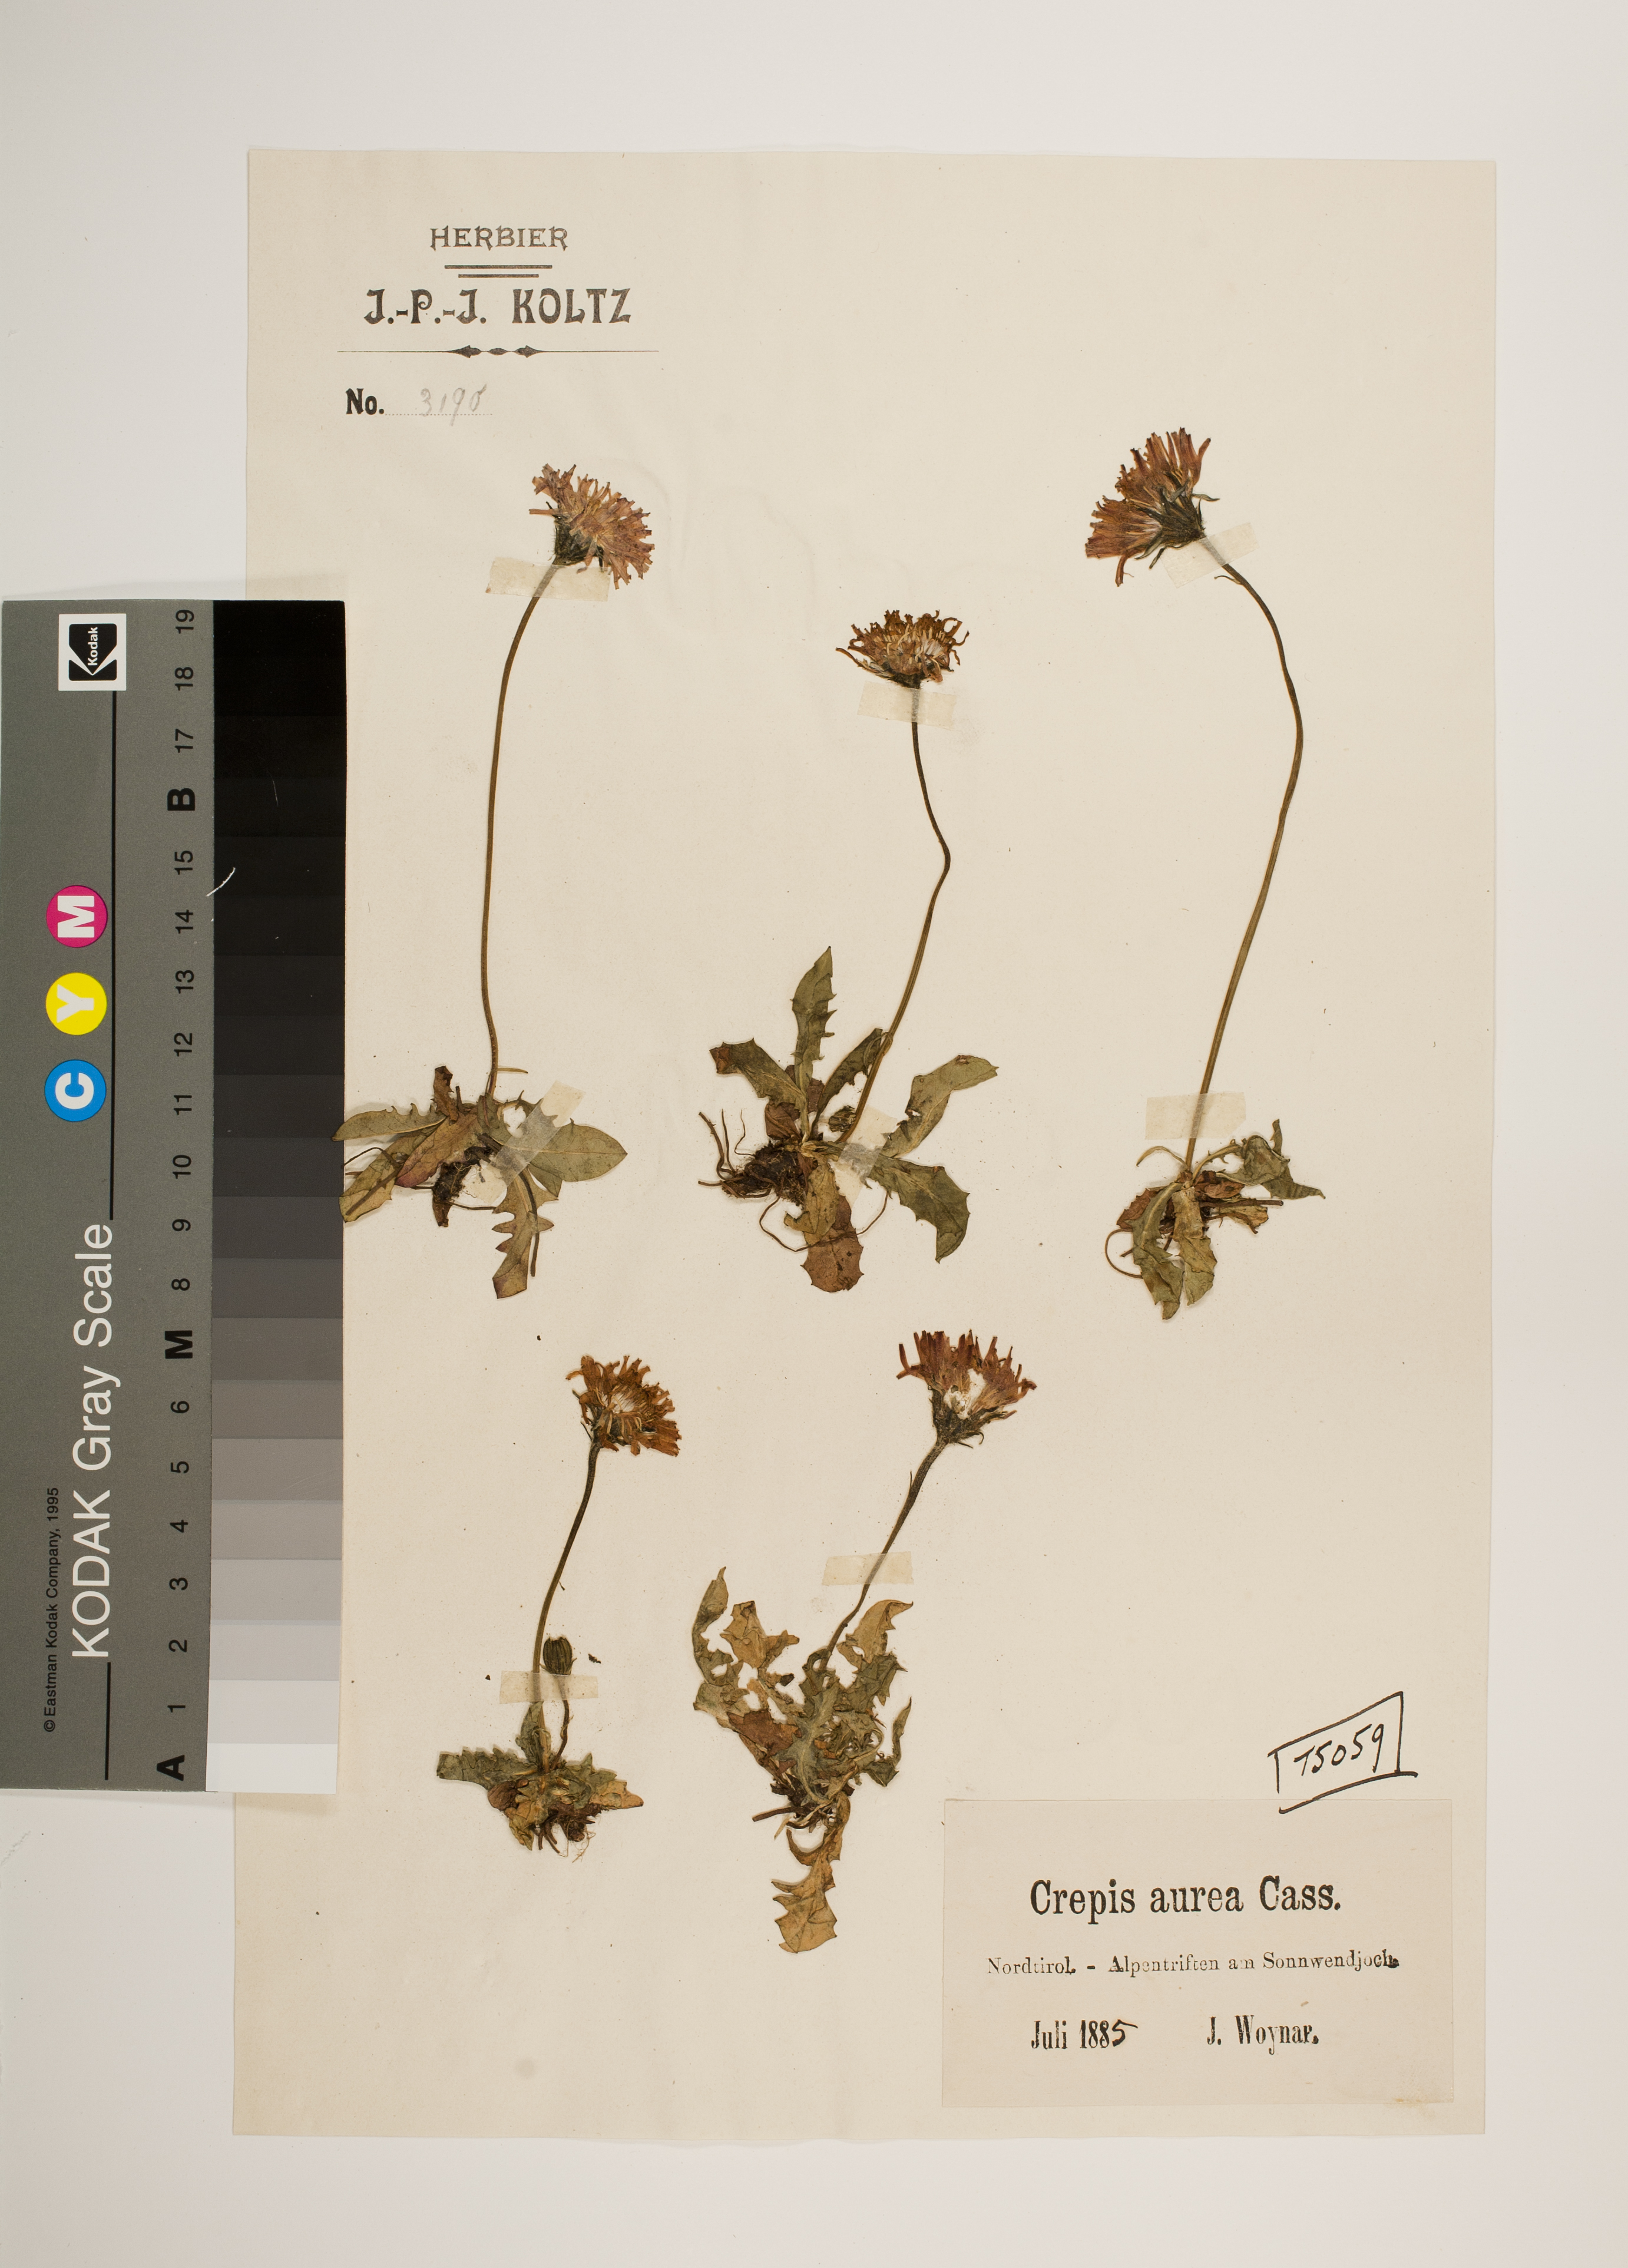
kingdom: Plantae
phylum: Tracheophyta
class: Magnoliopsida
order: Asterales
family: Asteraceae
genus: Crepis
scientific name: Crepis aurea
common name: Golden hawk's-beard
